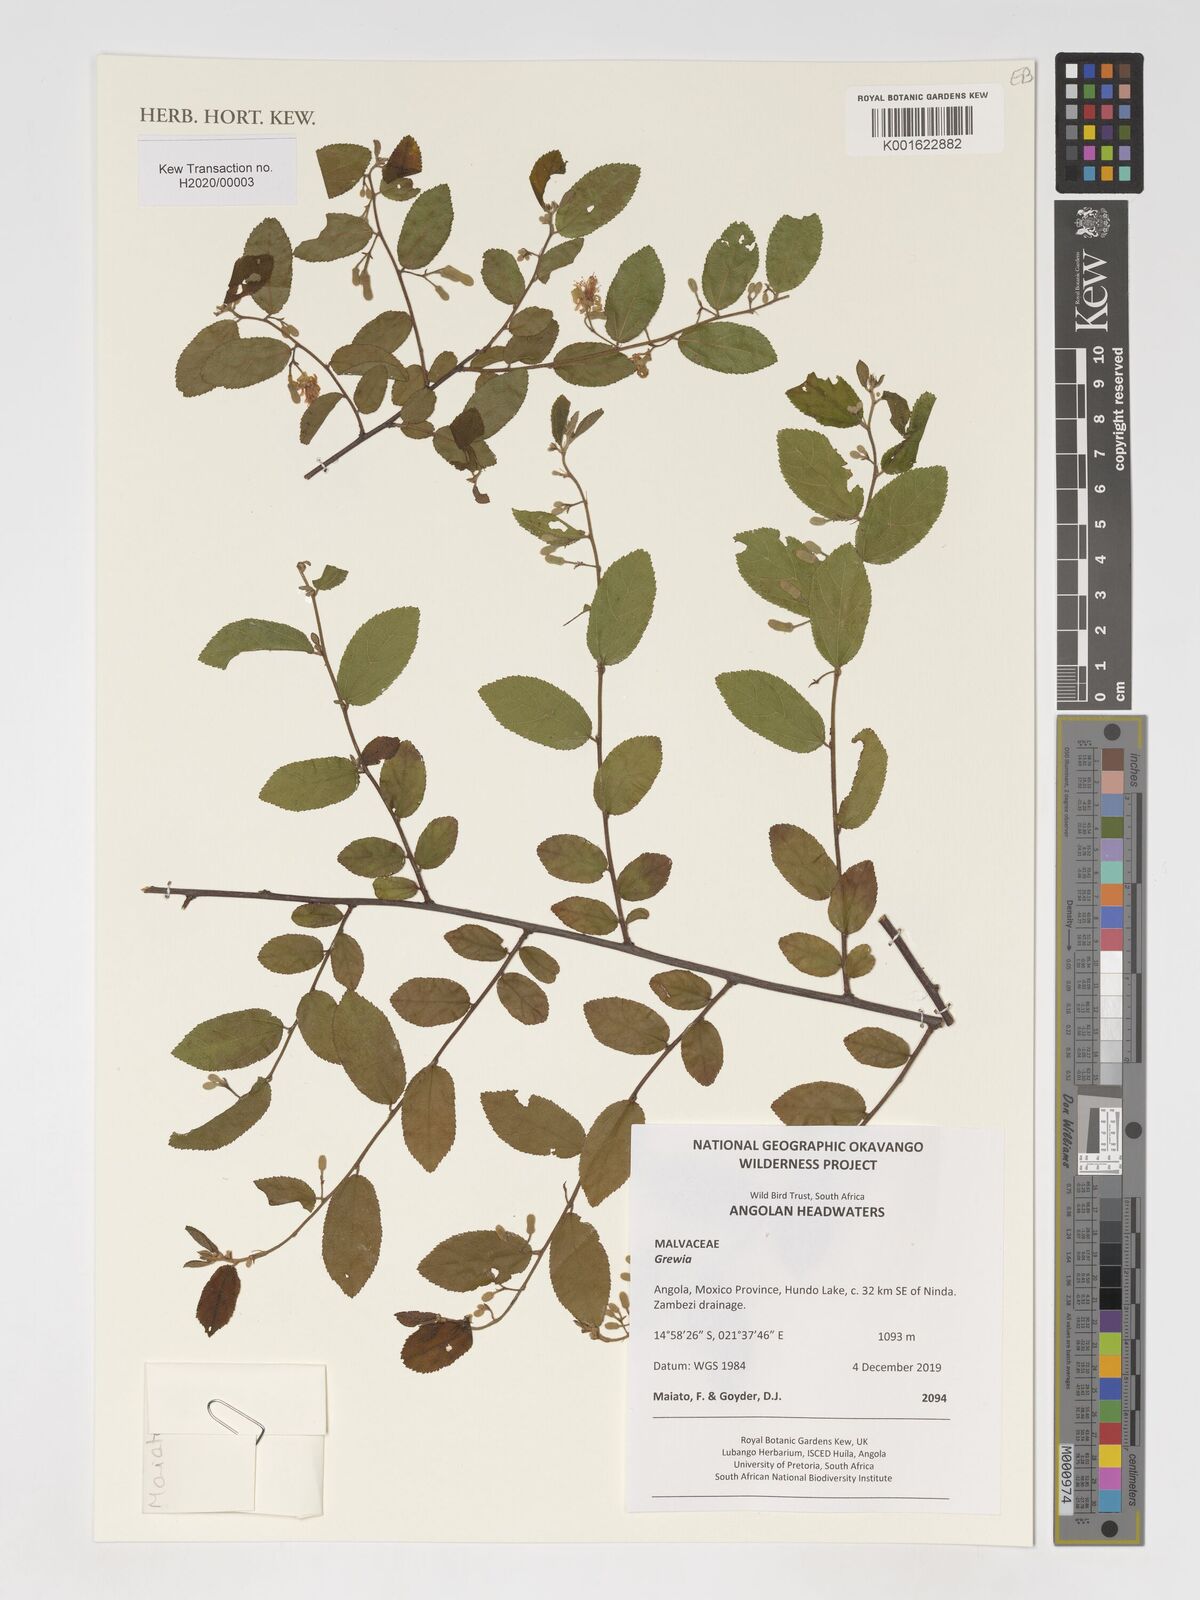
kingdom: Plantae
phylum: Tracheophyta
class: Magnoliopsida
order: Malvales
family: Malvaceae
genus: Grewia
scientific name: Grewia
